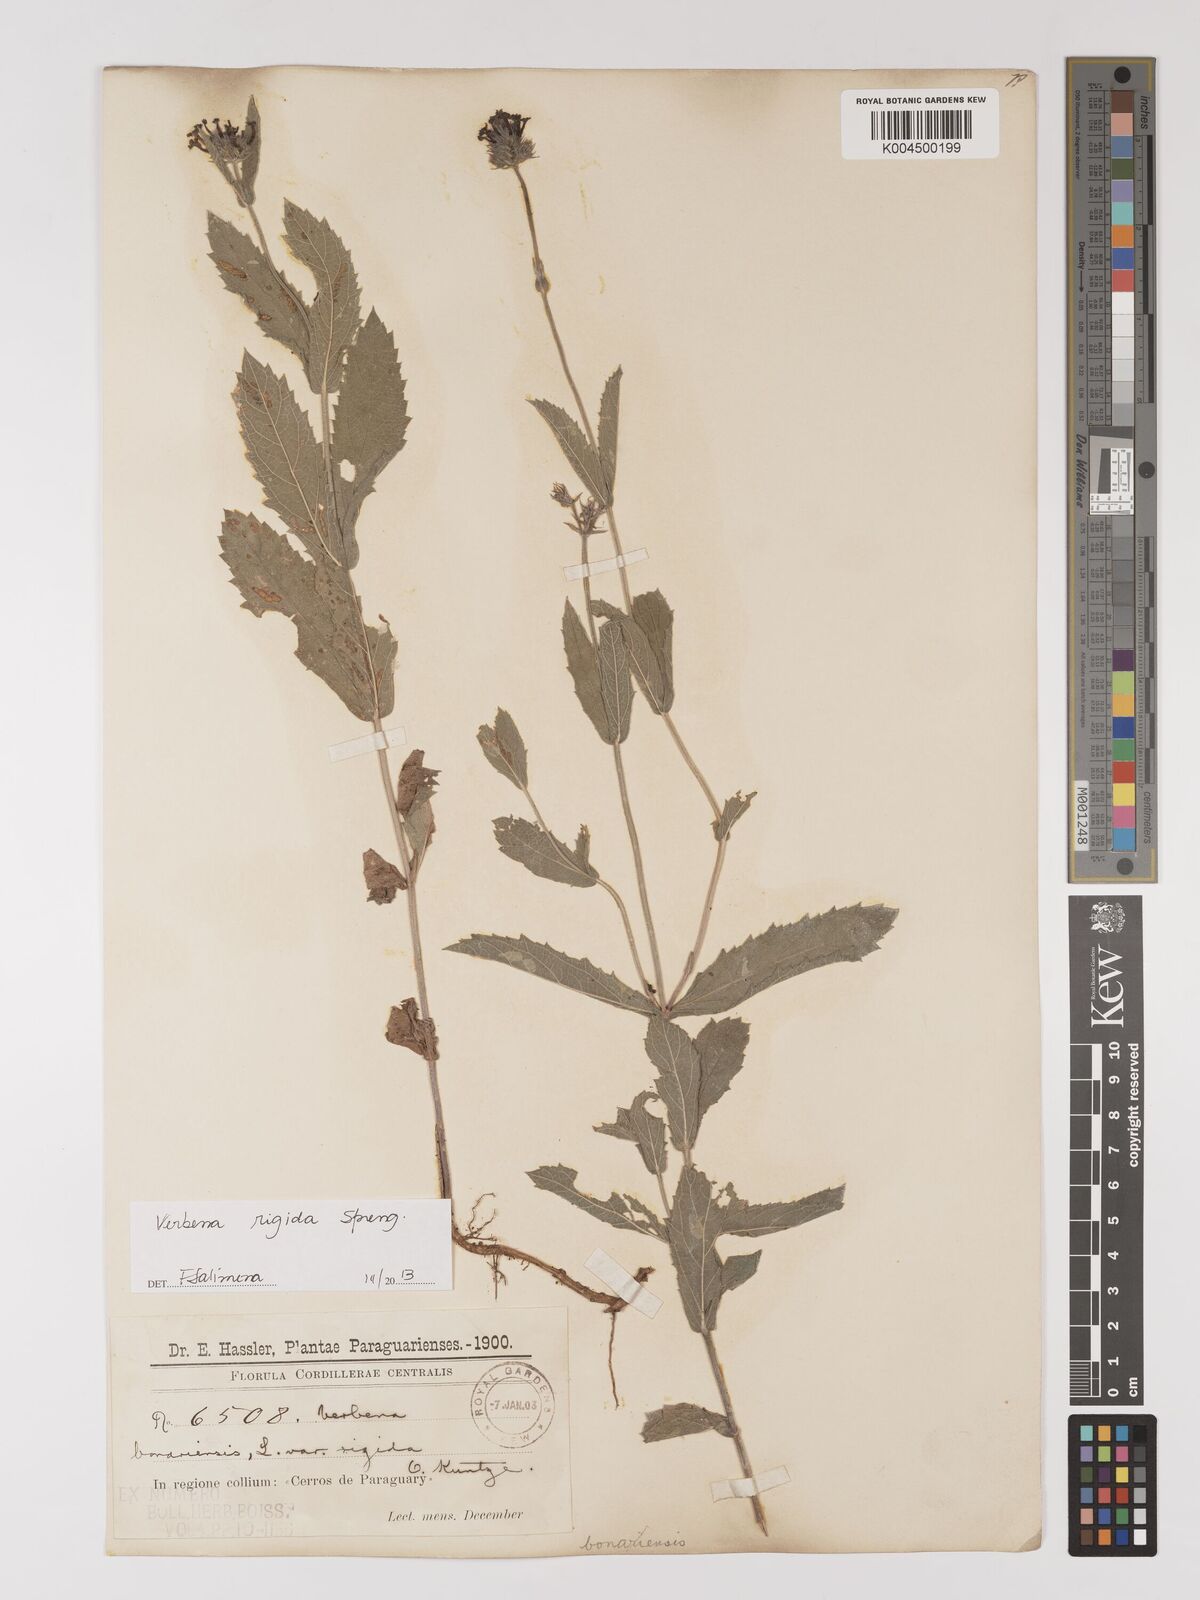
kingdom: Plantae
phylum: Tracheophyta
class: Magnoliopsida
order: Lamiales
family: Verbenaceae
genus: Verbena
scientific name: Verbena rigida
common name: Slender vervain
